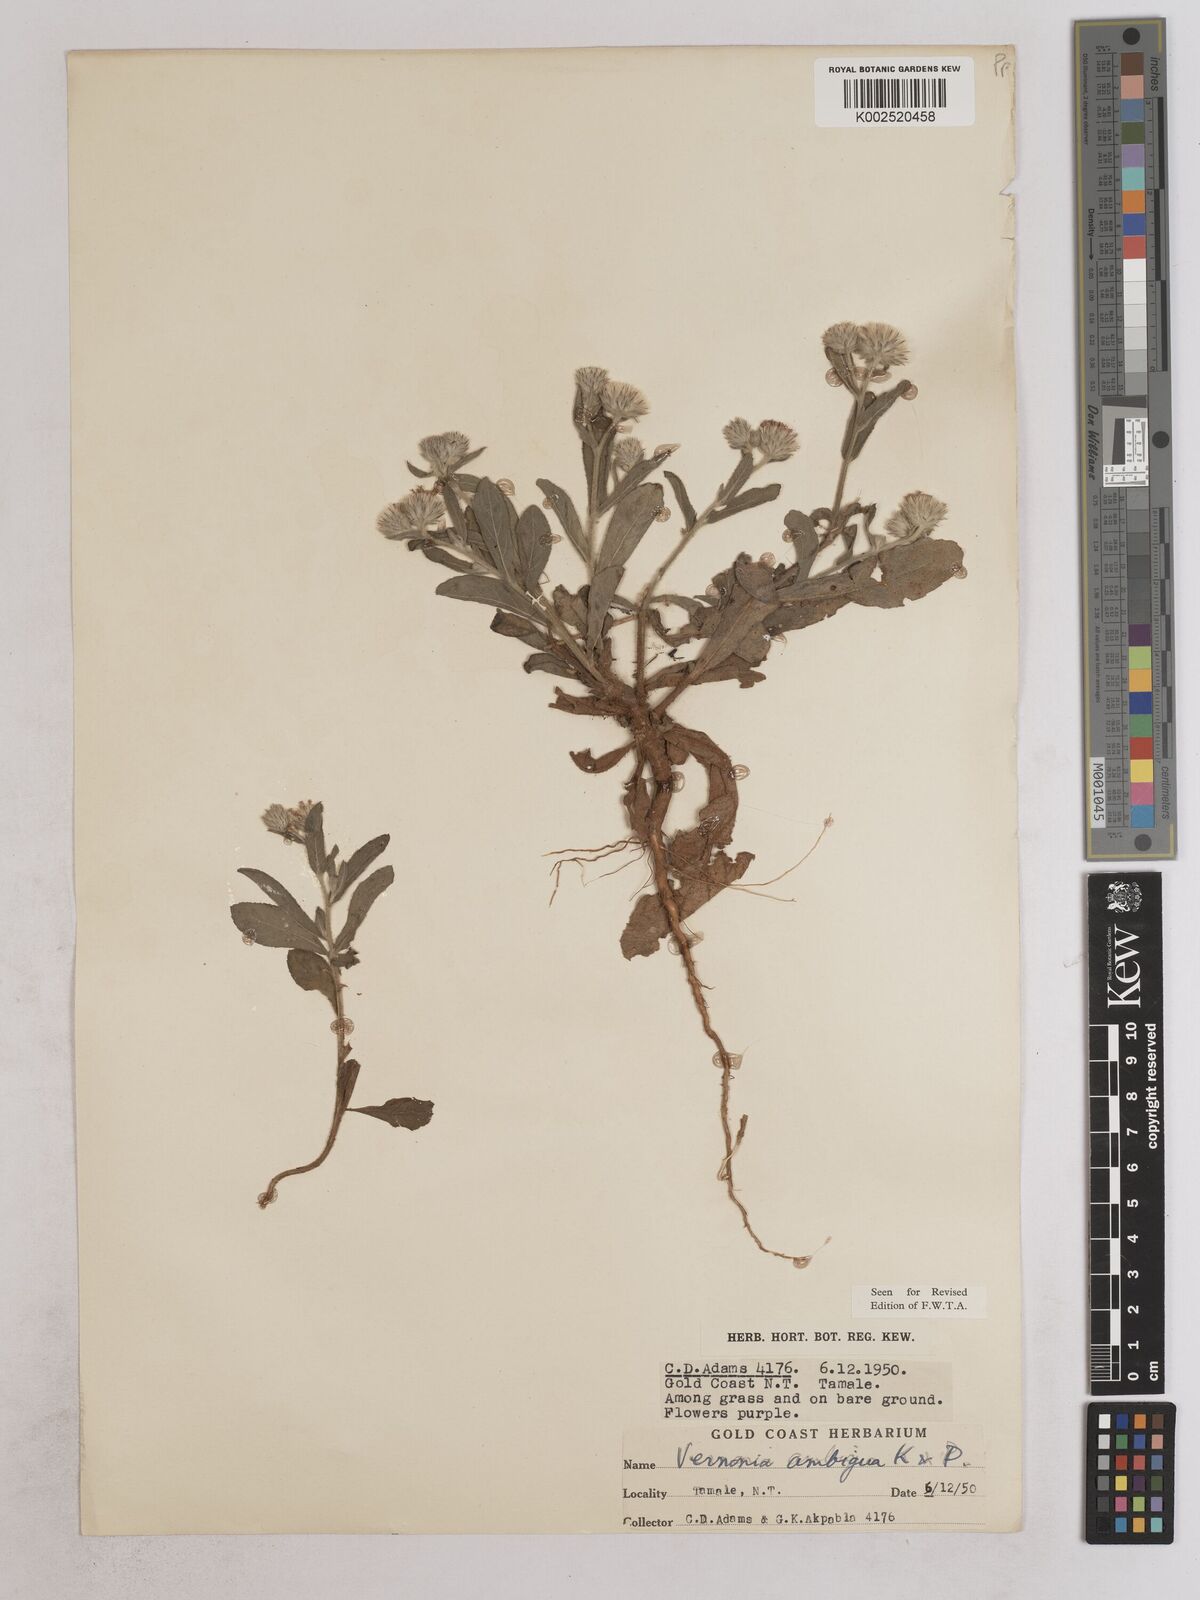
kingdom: Plantae
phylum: Tracheophyta
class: Magnoliopsida
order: Asterales
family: Asteraceae
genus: Vernoniastrum
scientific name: Vernoniastrum ambiguum
